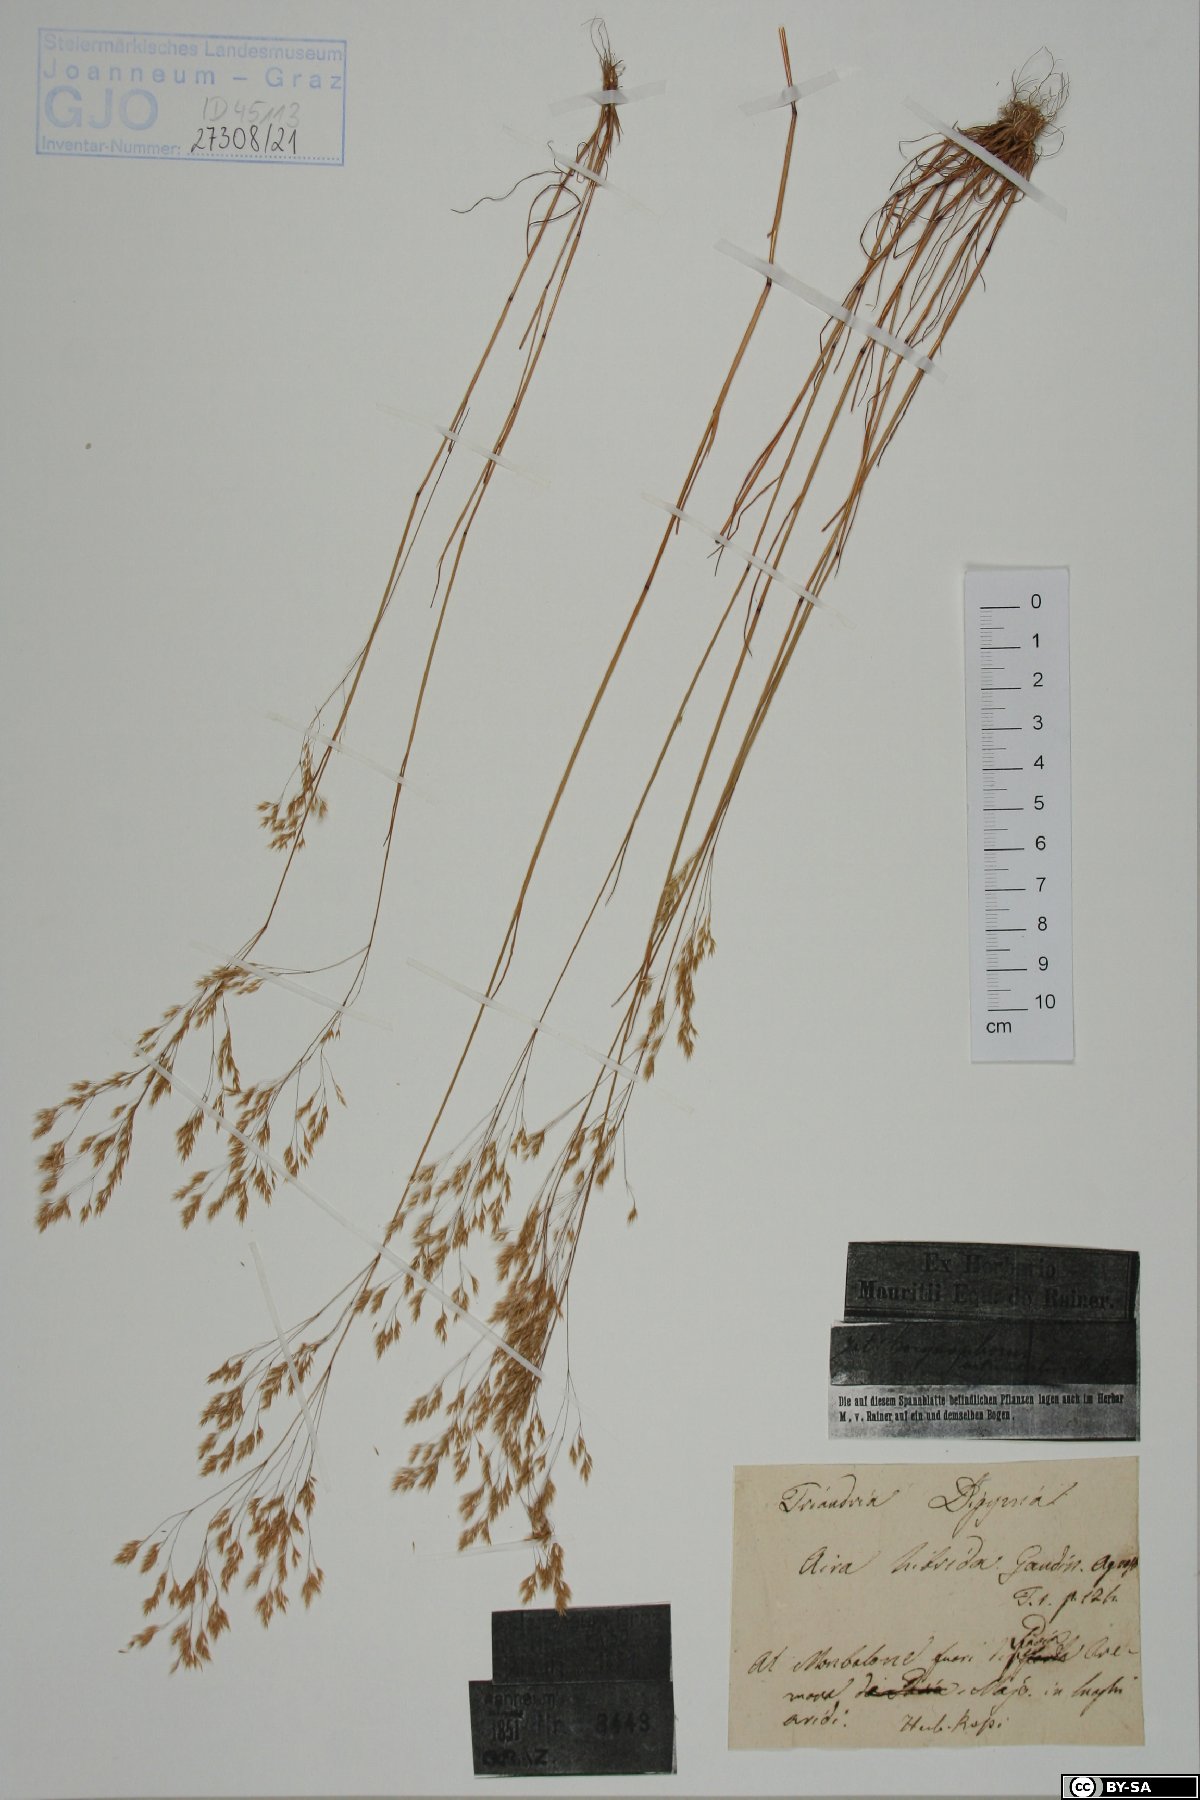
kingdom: Plantae
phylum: Tracheophyta
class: Liliopsida
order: Poales
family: Poaceae
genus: Aira
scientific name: Aira hybrida
